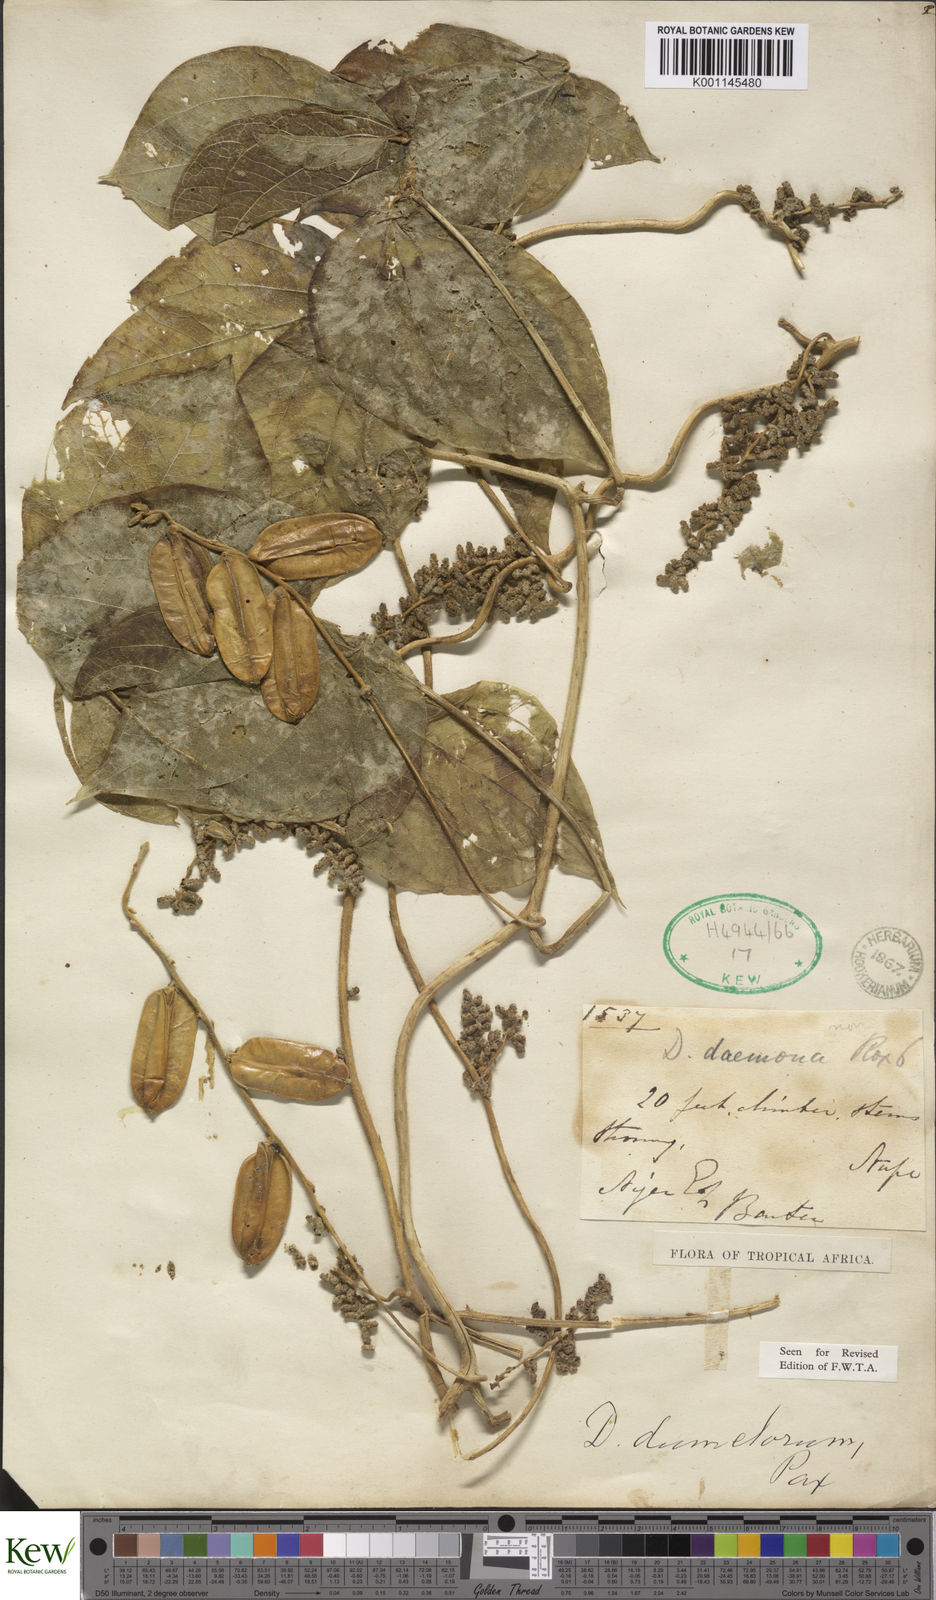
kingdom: Plantae
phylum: Tracheophyta
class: Liliopsida
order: Dioscoreales
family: Dioscoreaceae
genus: Dioscorea
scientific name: Dioscorea dumetorum
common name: African bitter yam
